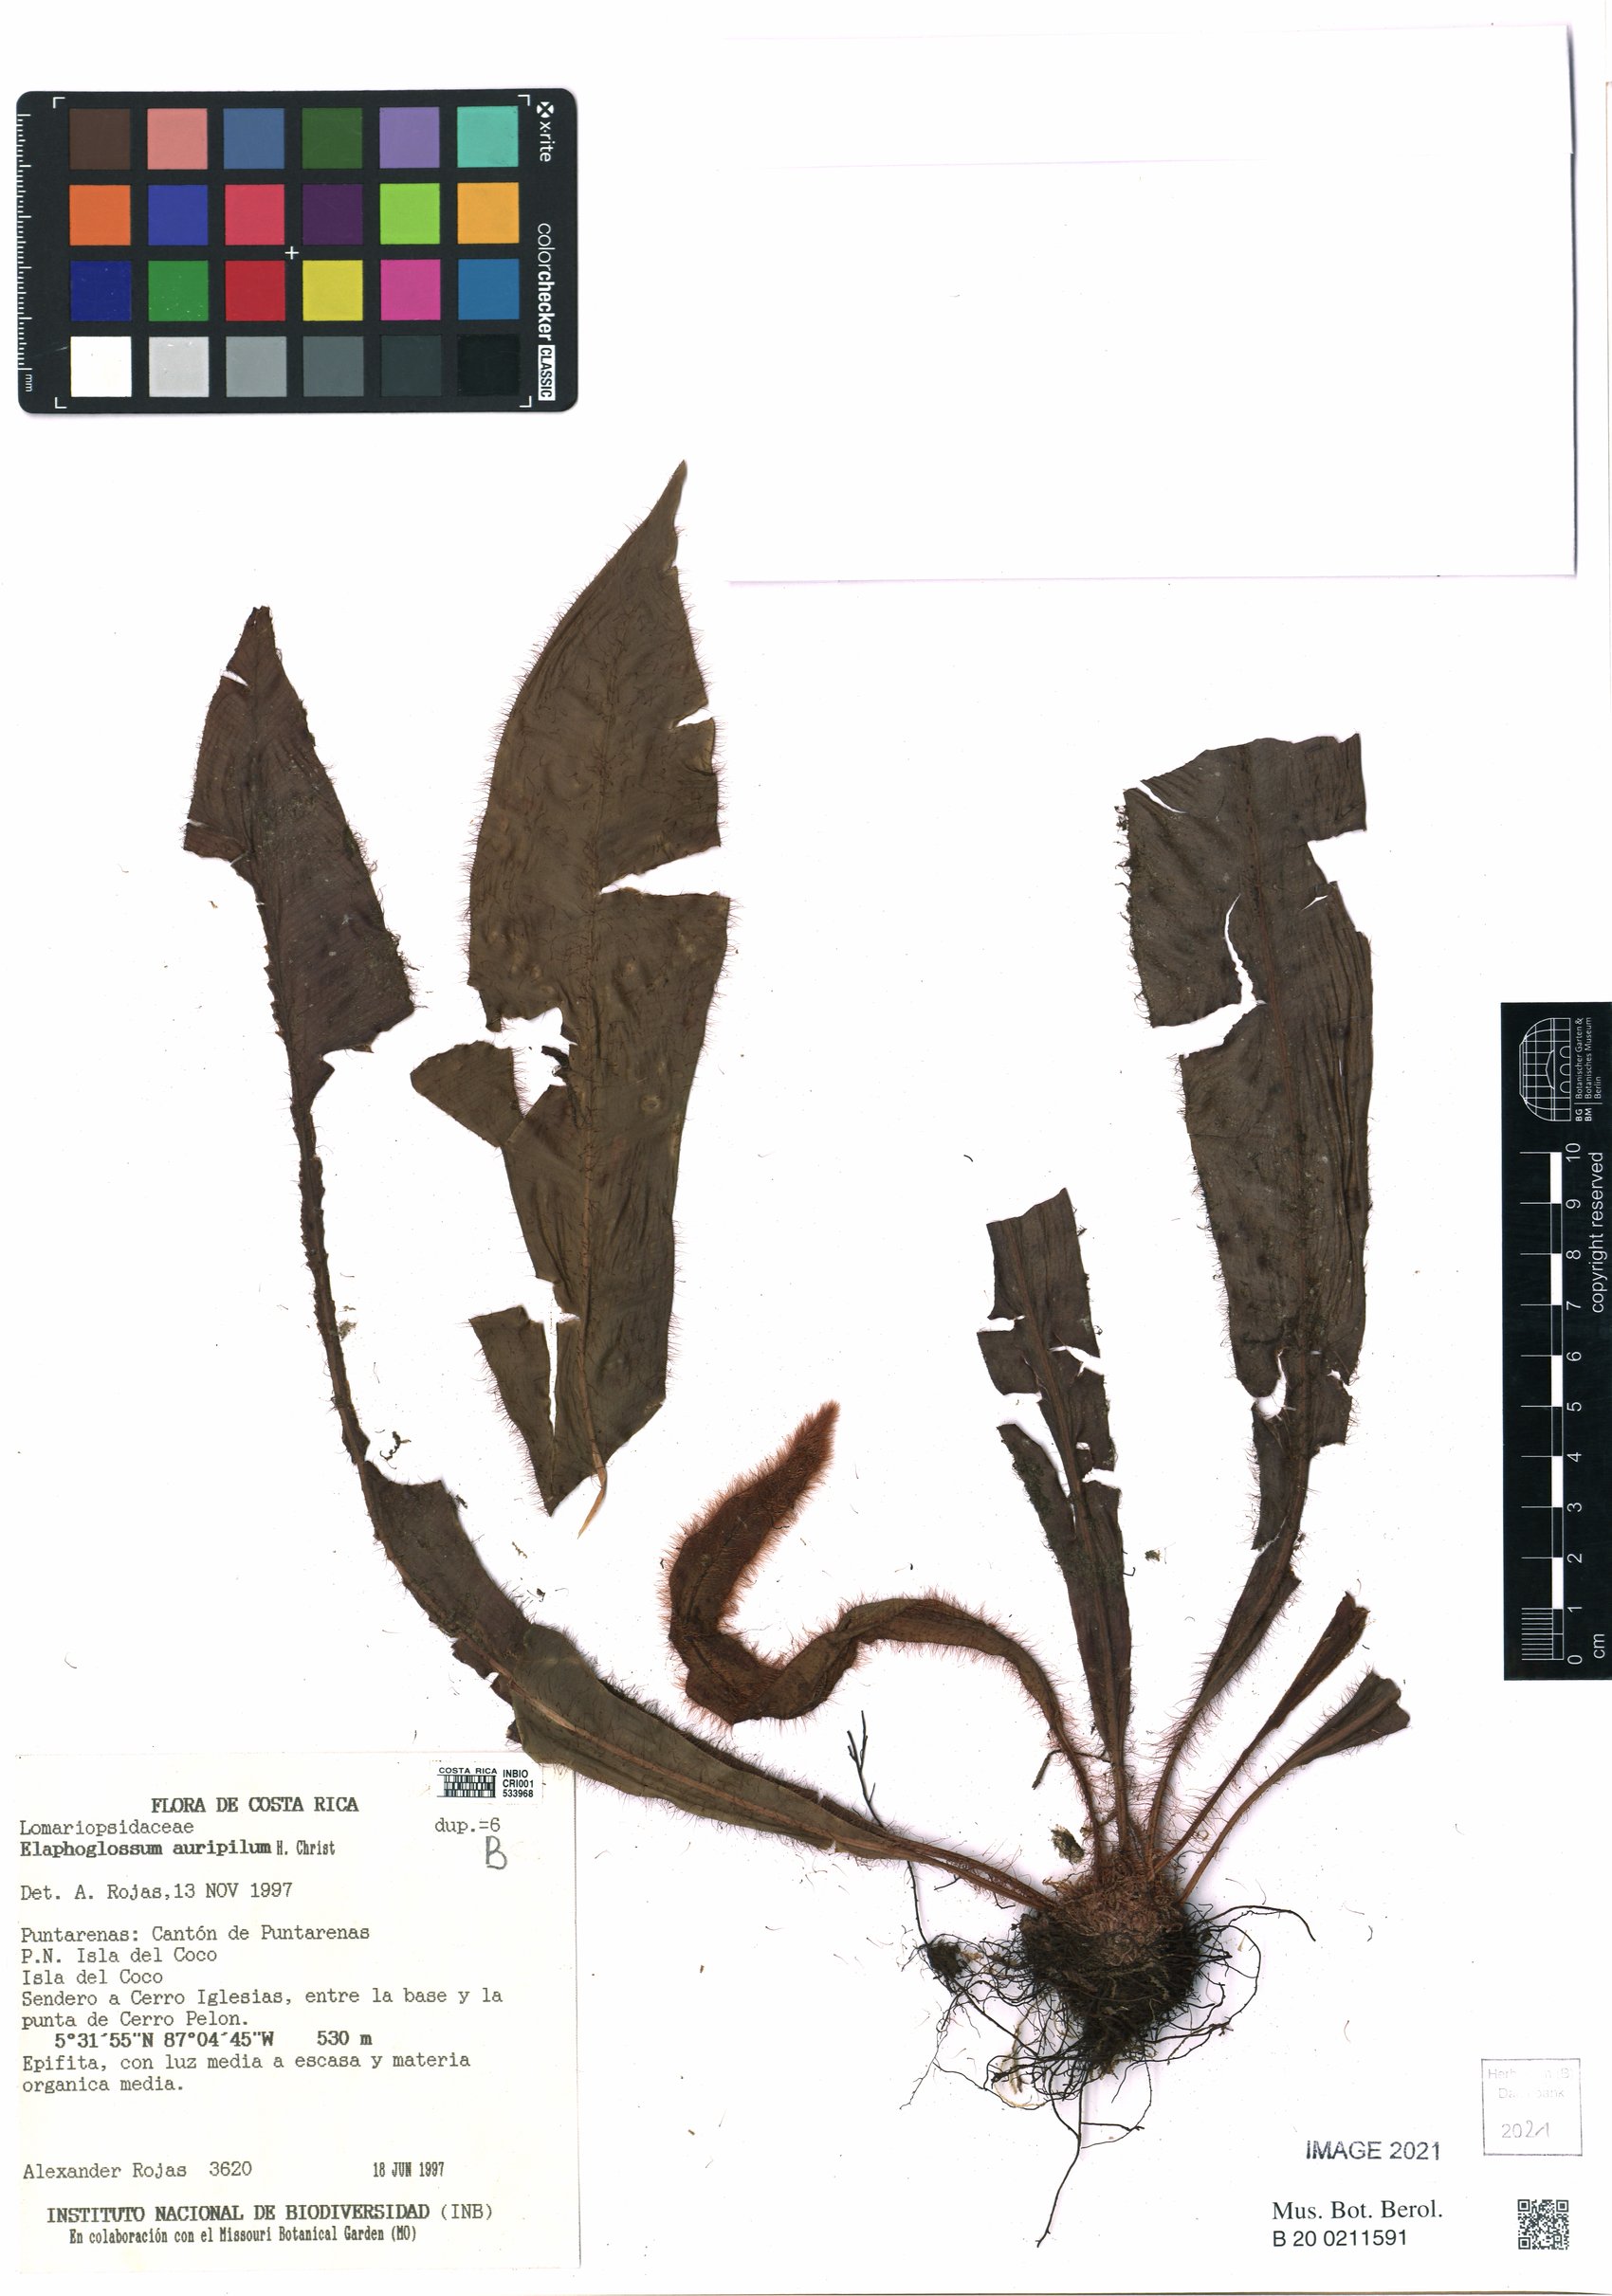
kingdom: Plantae
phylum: Tracheophyta
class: Polypodiopsida
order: Polypodiales
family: Dryopteridaceae
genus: Elaphoglossum
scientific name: Elaphoglossum alvaradoanum
